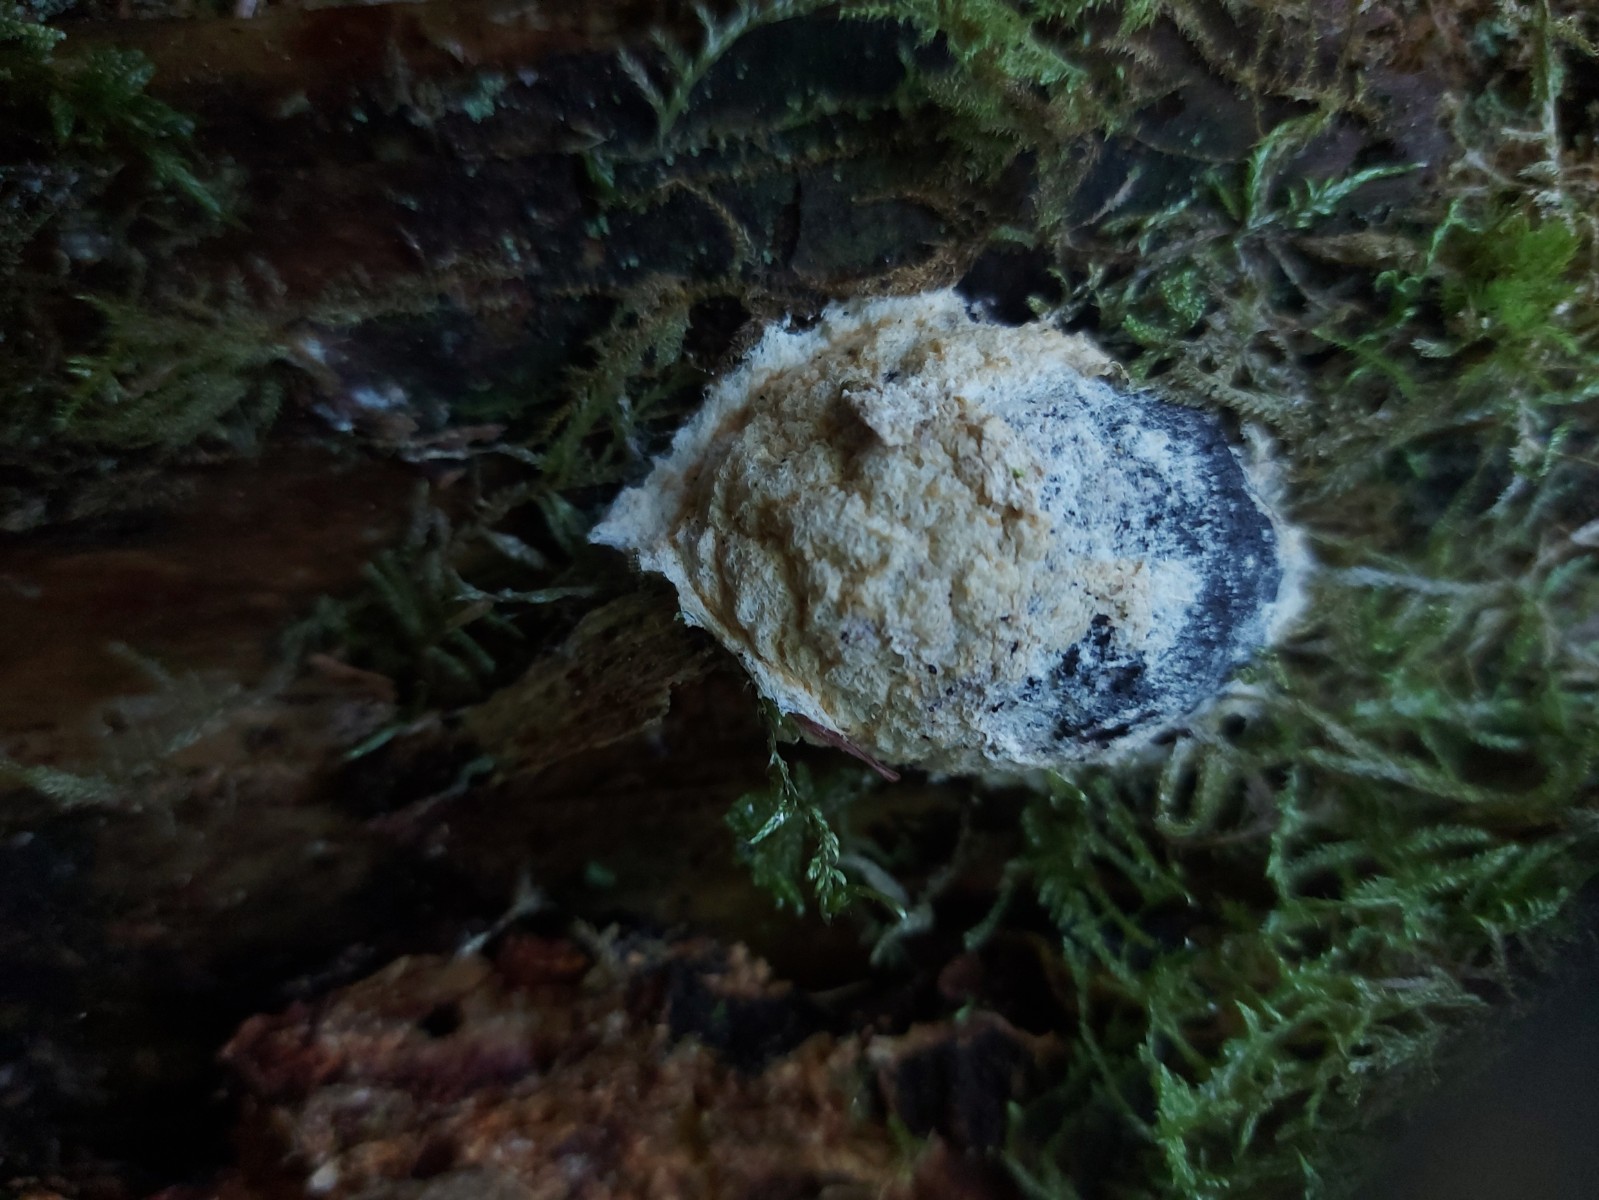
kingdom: Protozoa
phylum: Mycetozoa
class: Myxomycetes
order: Physarales
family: Physaraceae
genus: Fuligo
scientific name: Fuligo
